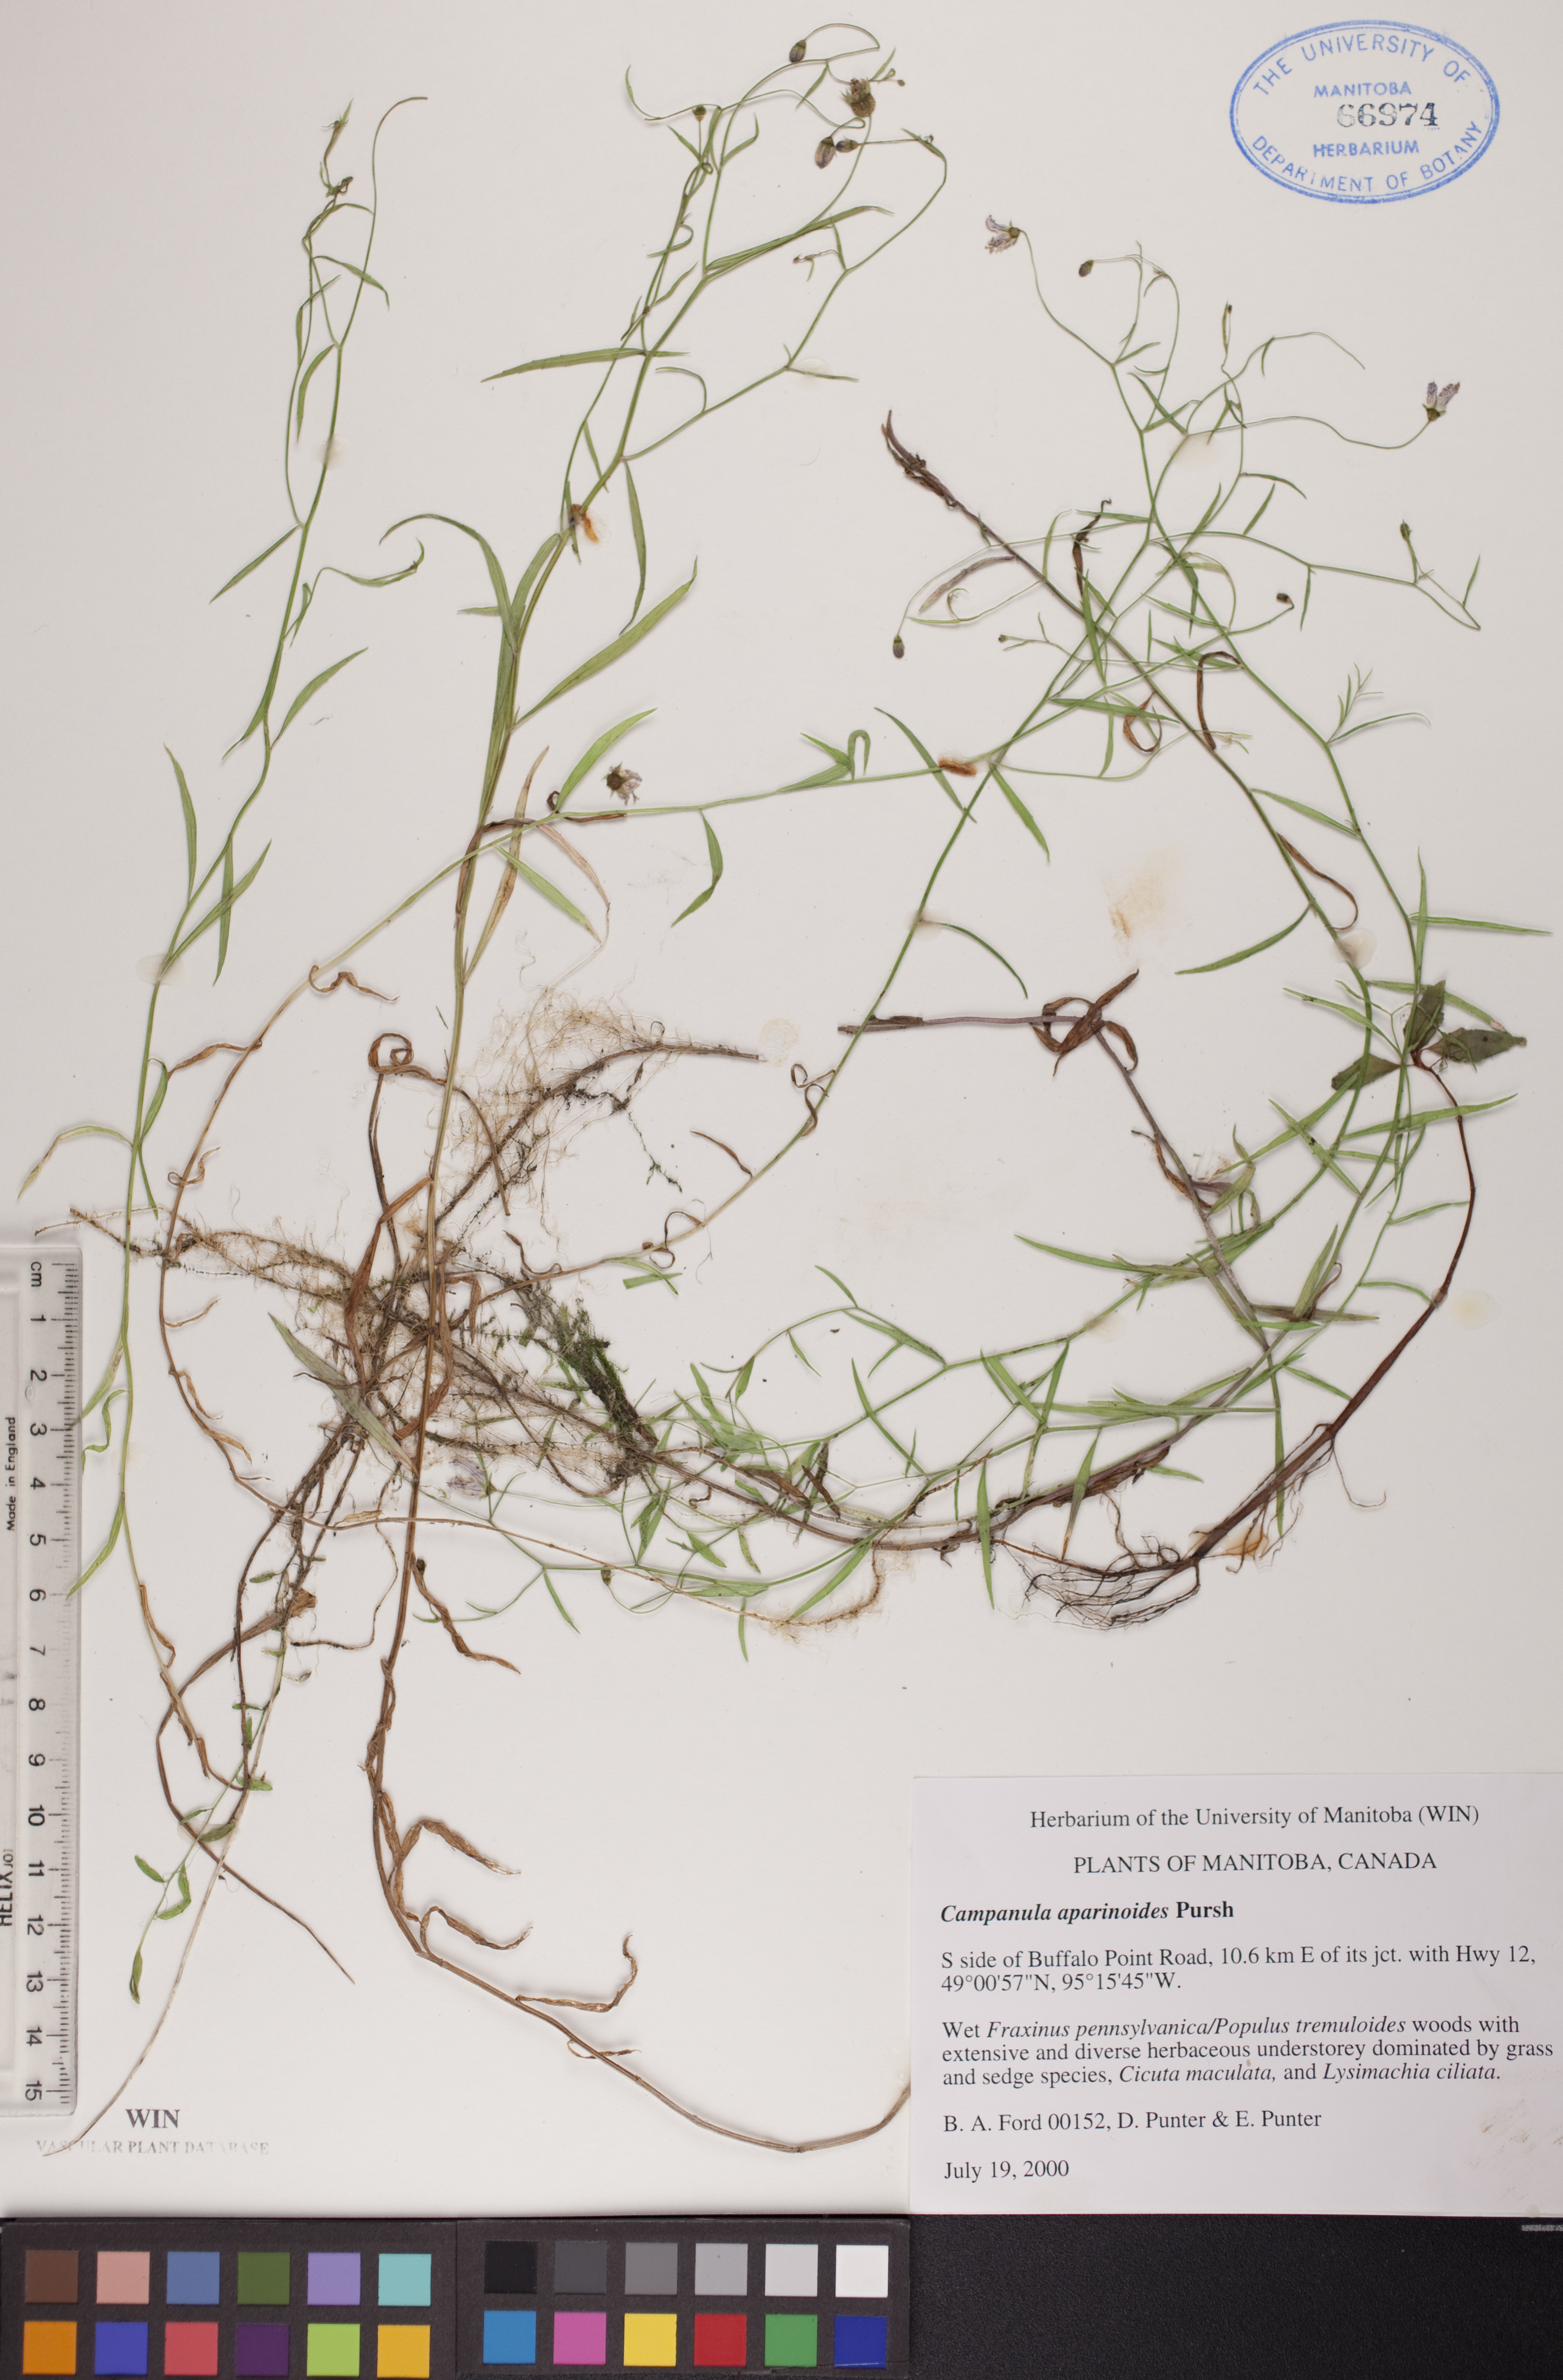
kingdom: Plantae
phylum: Tracheophyta
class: Magnoliopsida
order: Asterales
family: Campanulaceae
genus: Palustricodon
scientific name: Palustricodon aparinoides
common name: Bedstraw bellflower
